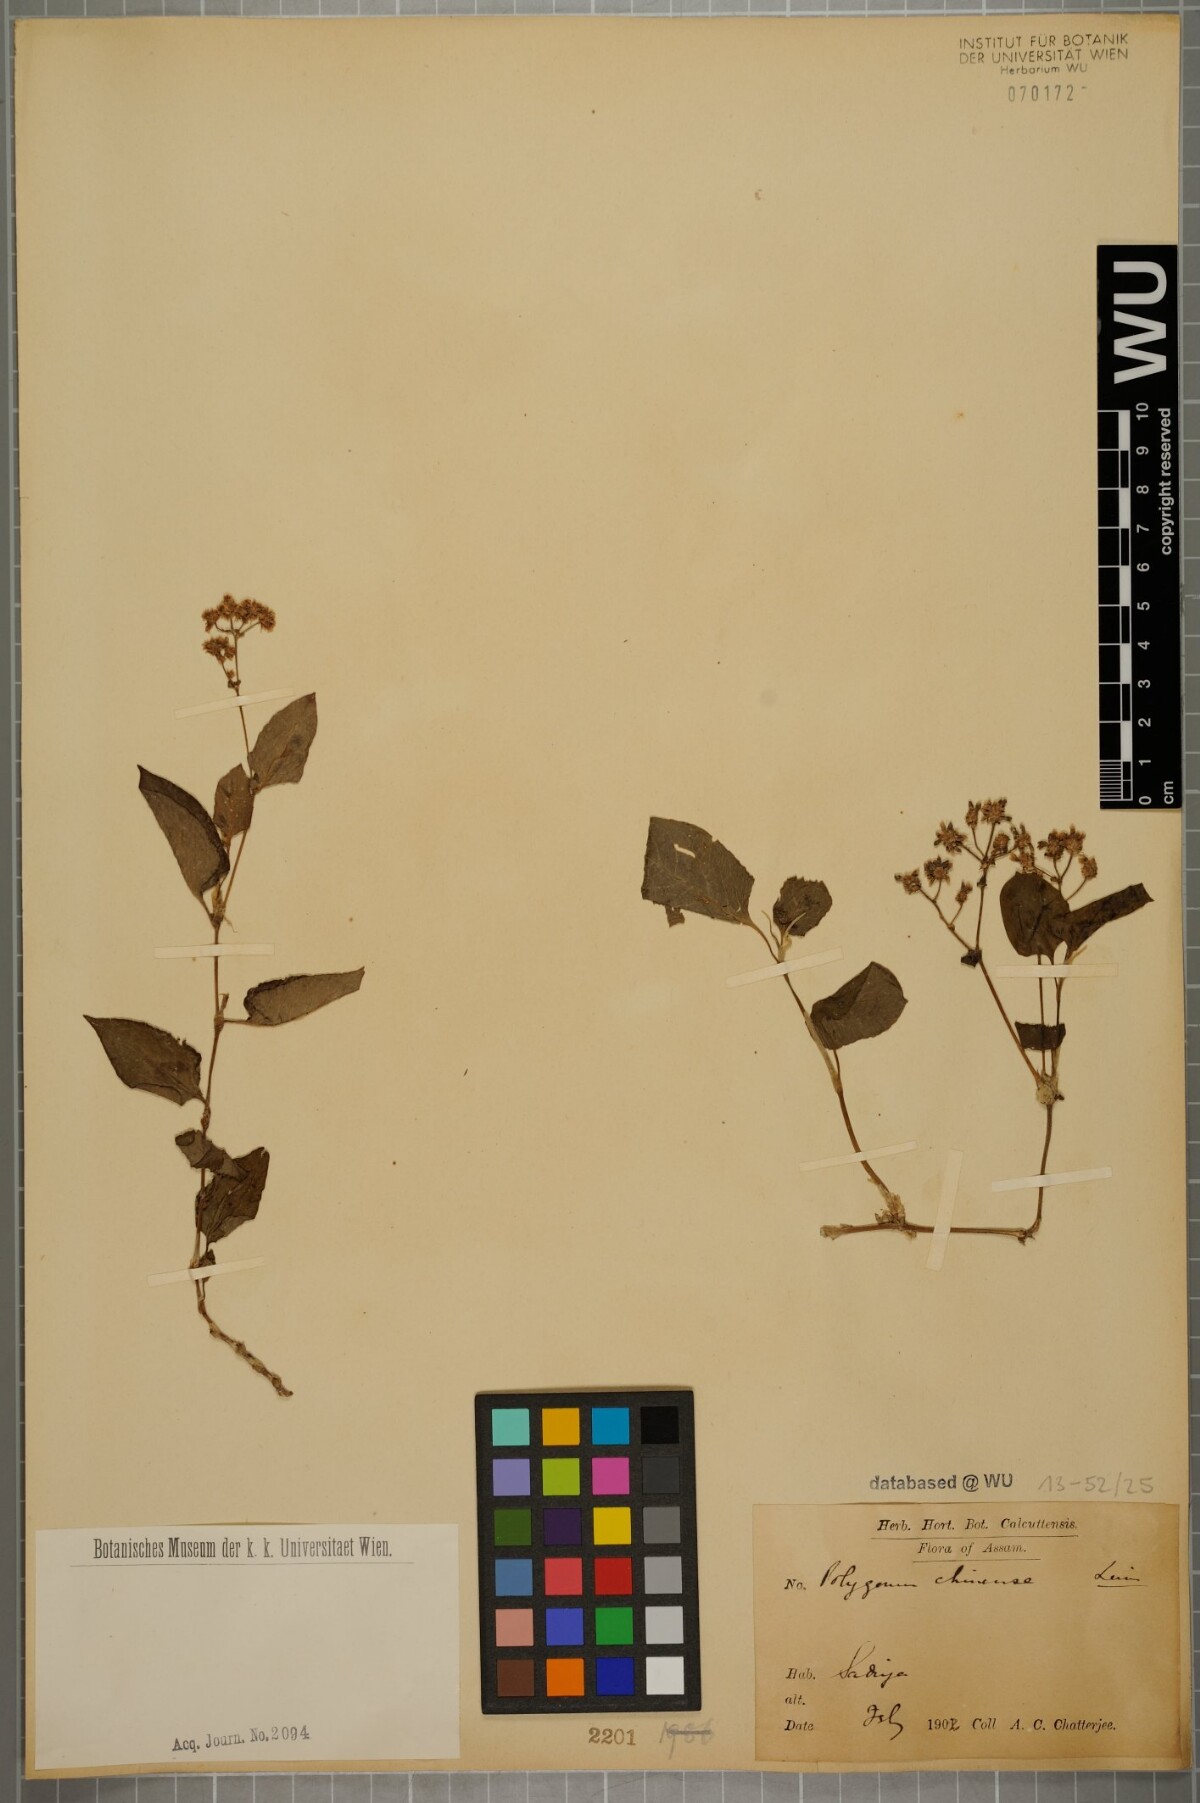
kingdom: Plantae
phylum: Tracheophyta
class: Magnoliopsida
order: Caryophyllales
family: Polygonaceae
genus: Persicaria
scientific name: Persicaria chinensis
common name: Chinese knotweed
